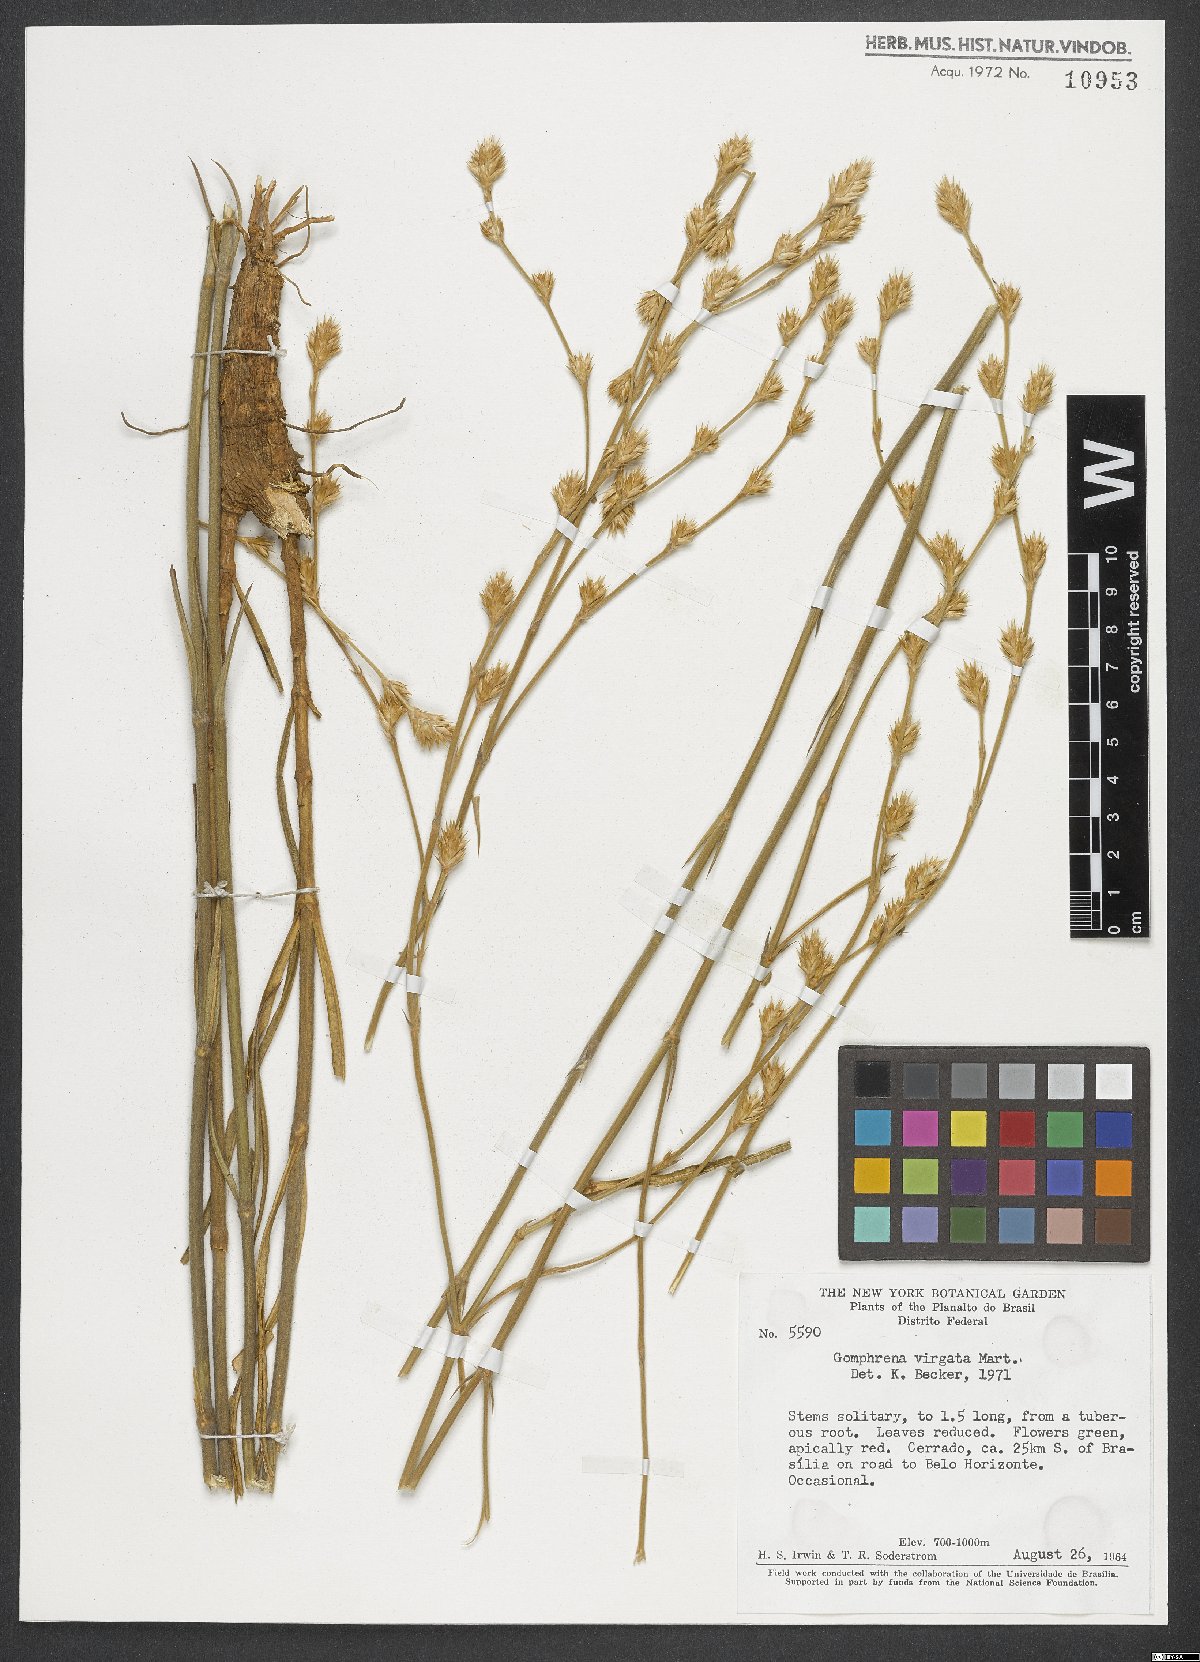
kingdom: Plantae
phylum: Tracheophyta
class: Magnoliopsida
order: Caryophyllales
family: Amaranthaceae
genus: Gomphrena
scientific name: Gomphrena virgata
